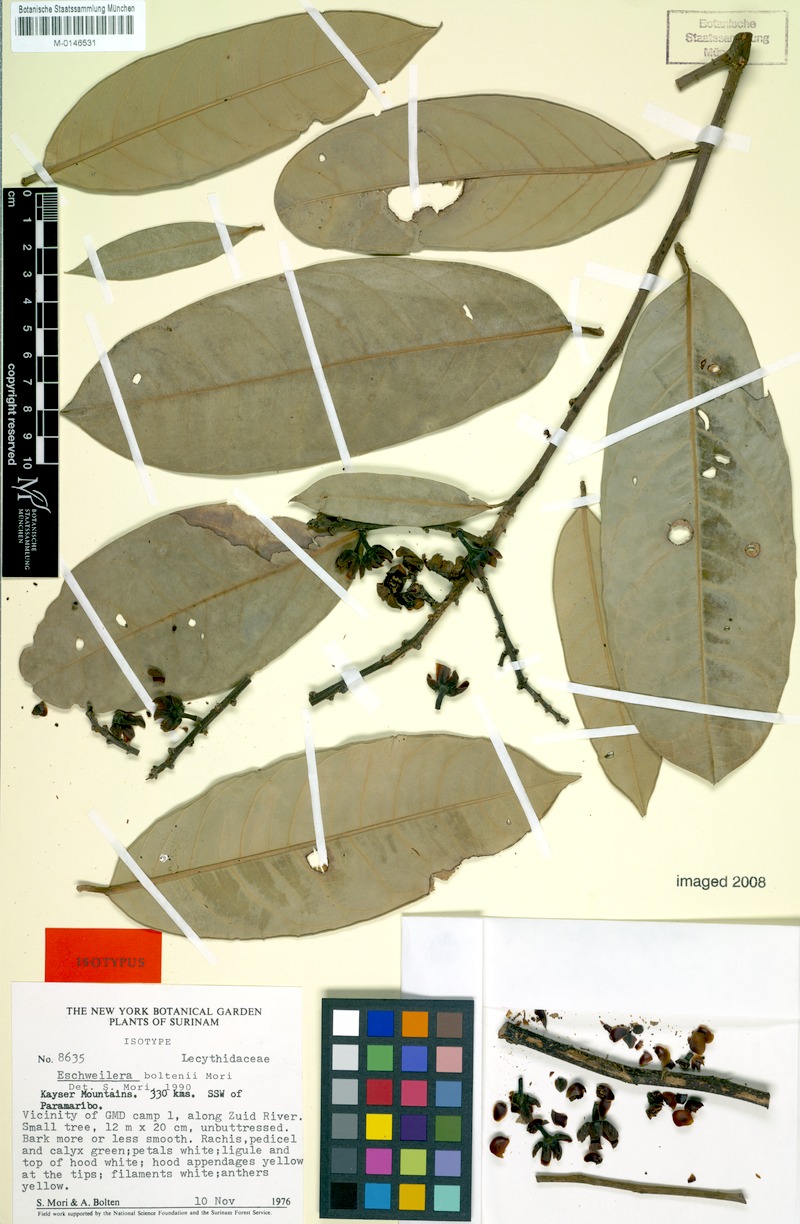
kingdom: Plantae
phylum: Tracheophyta
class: Magnoliopsida
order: Ericales
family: Lecythidaceae
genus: Eschweilera
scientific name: Eschweilera boltenii
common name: Bolten eschweilera
